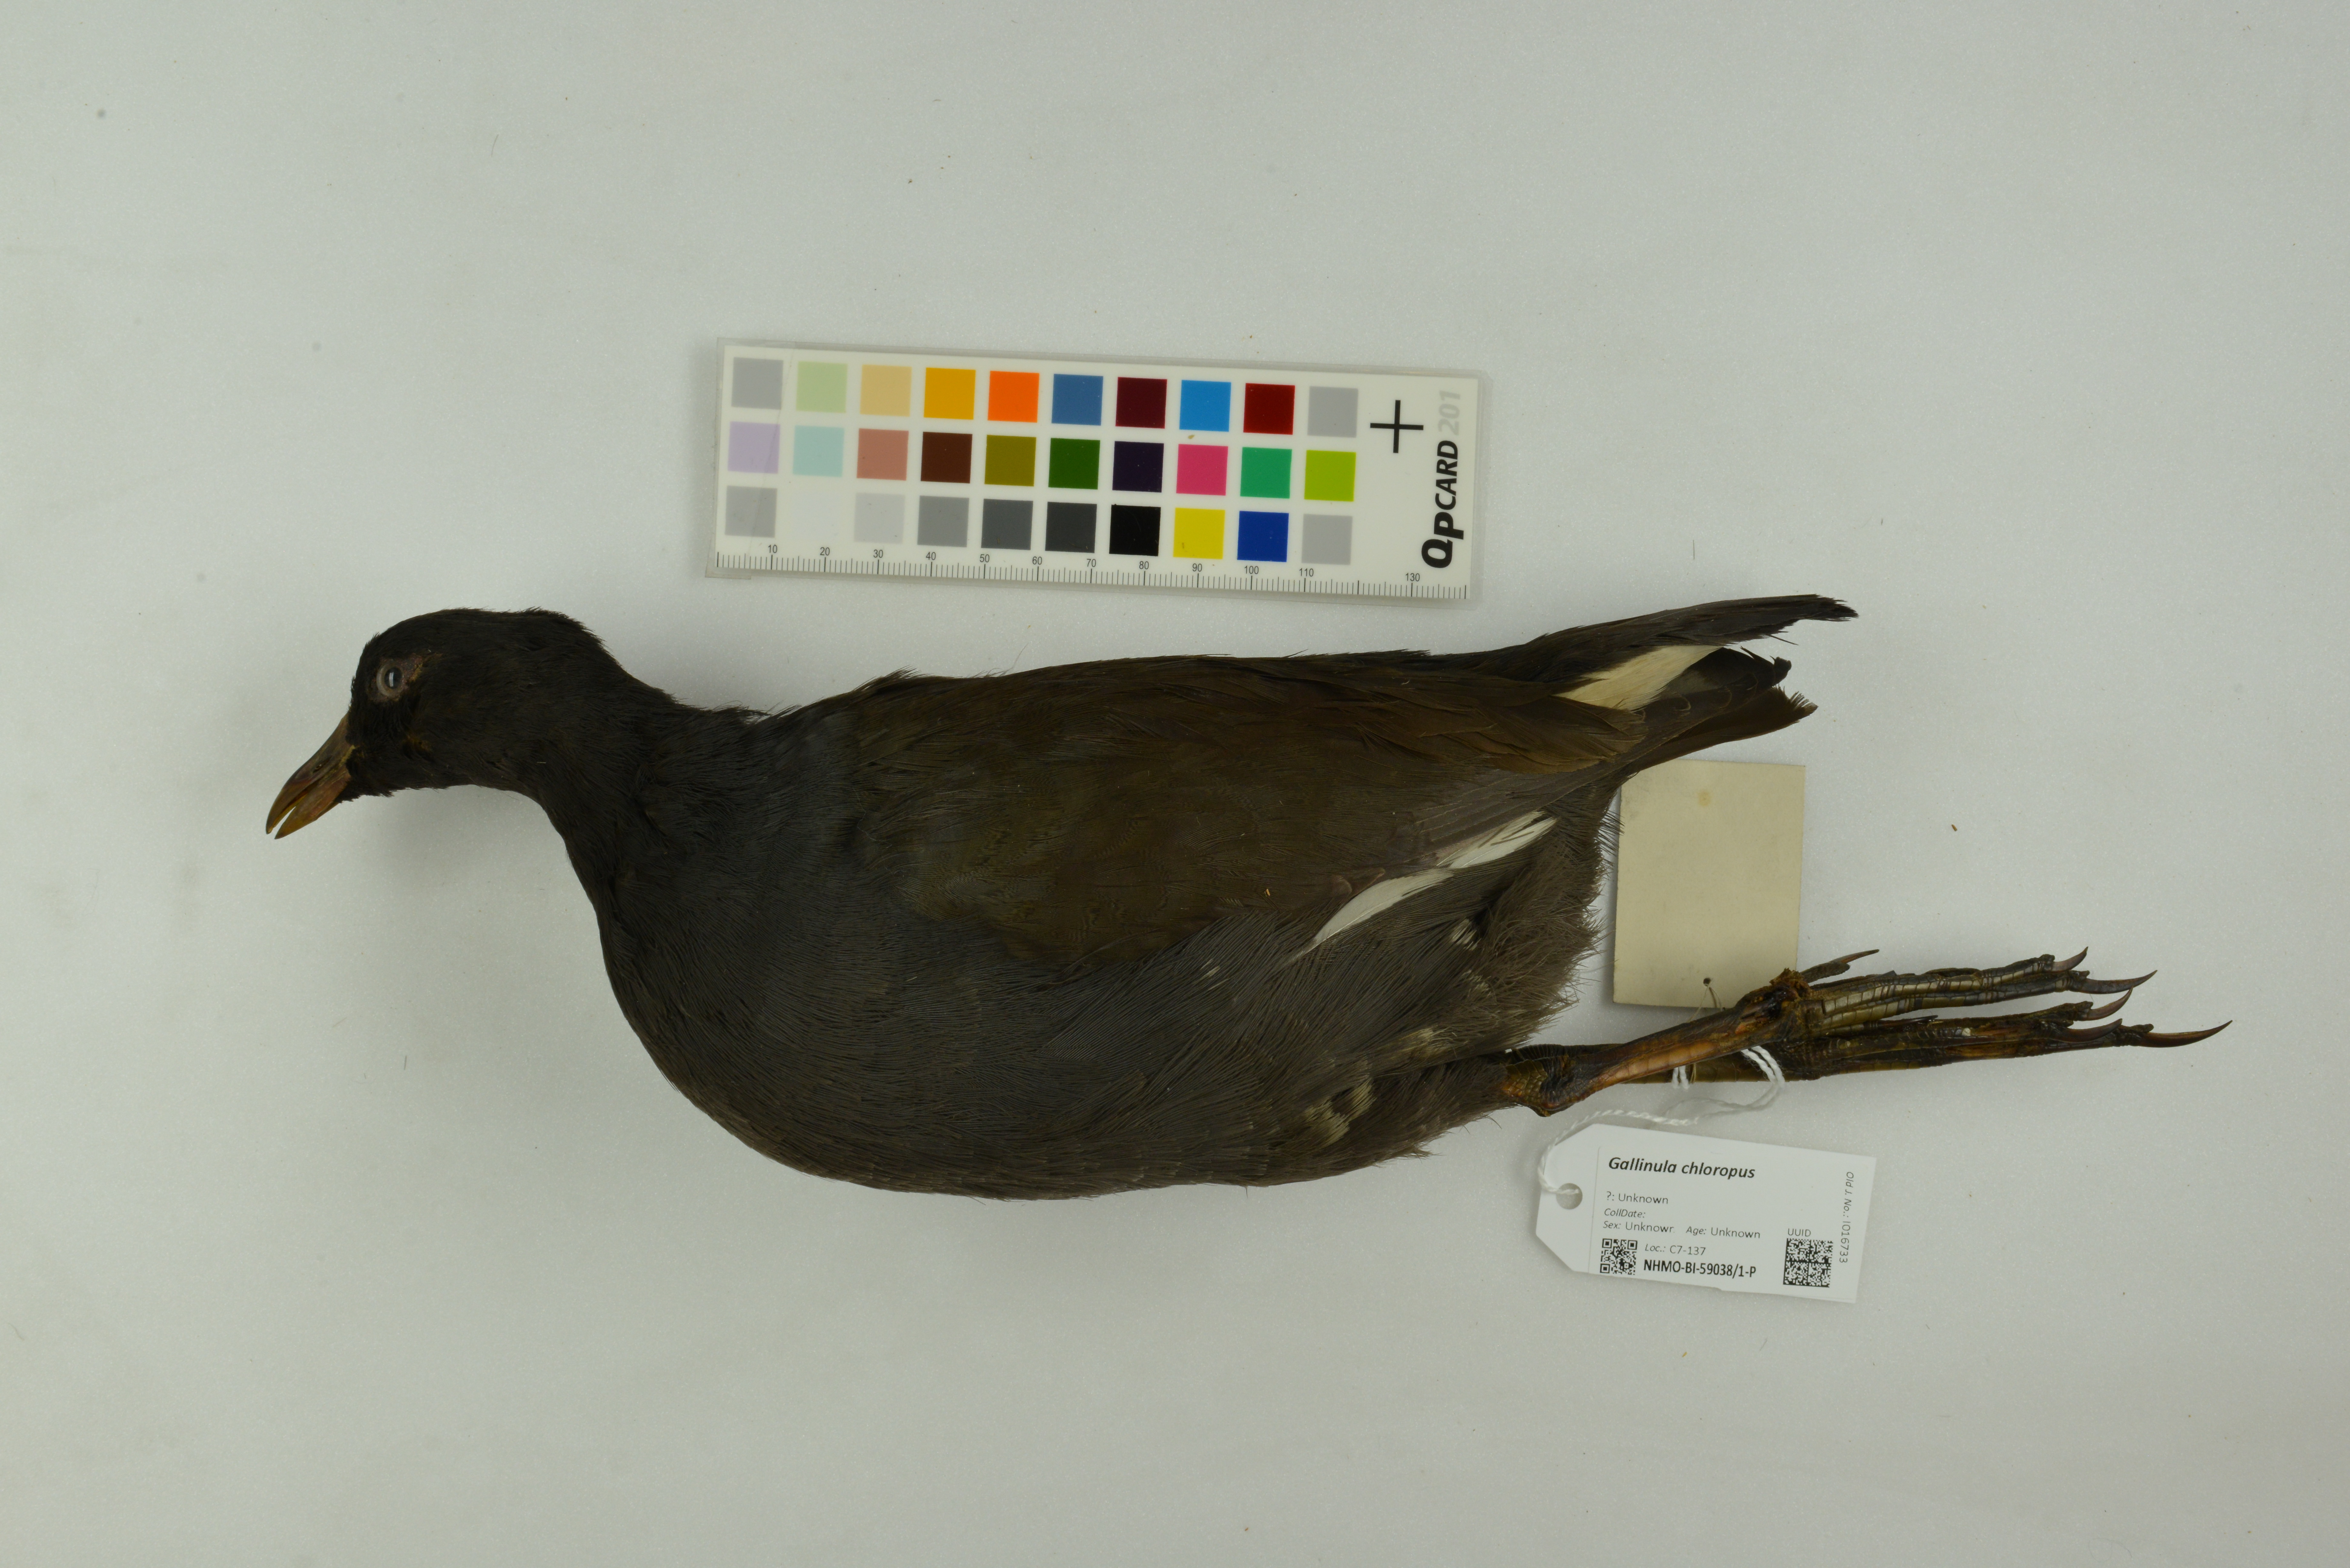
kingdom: Animalia
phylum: Chordata
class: Aves
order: Gruiformes
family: Rallidae
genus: Gallinula
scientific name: Gallinula chloropus
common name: Common moorhen
